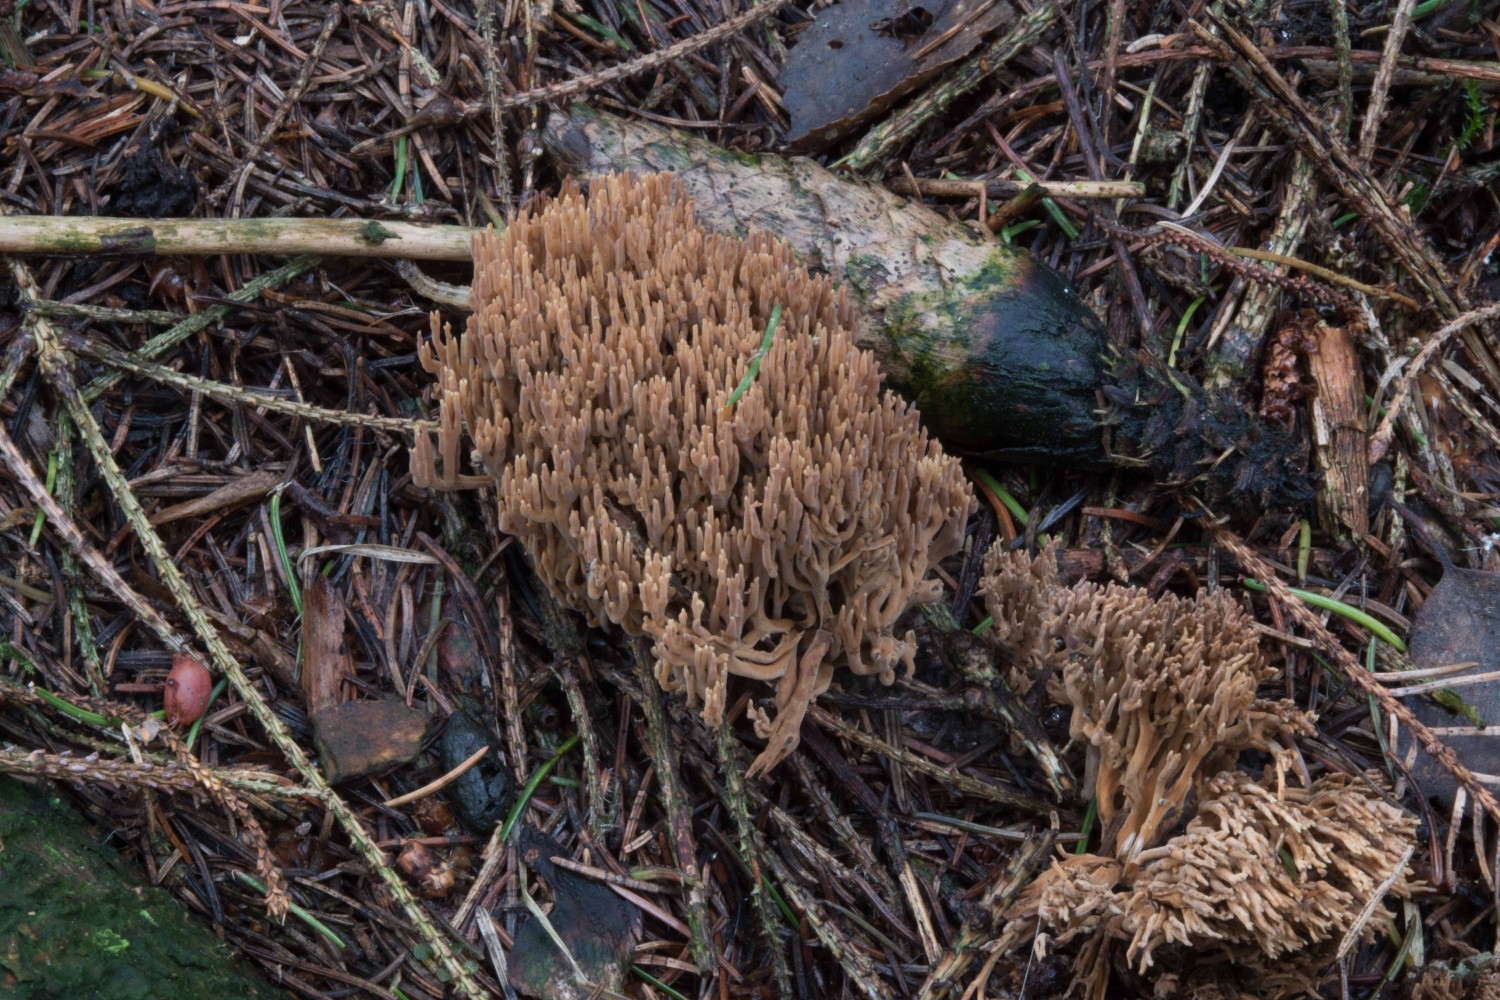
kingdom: Fungi
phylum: Basidiomycota
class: Agaricomycetes
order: Gomphales
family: Gomphaceae
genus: Phaeoclavulina
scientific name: Phaeoclavulina eumorpha
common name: gran-koralsvamp
